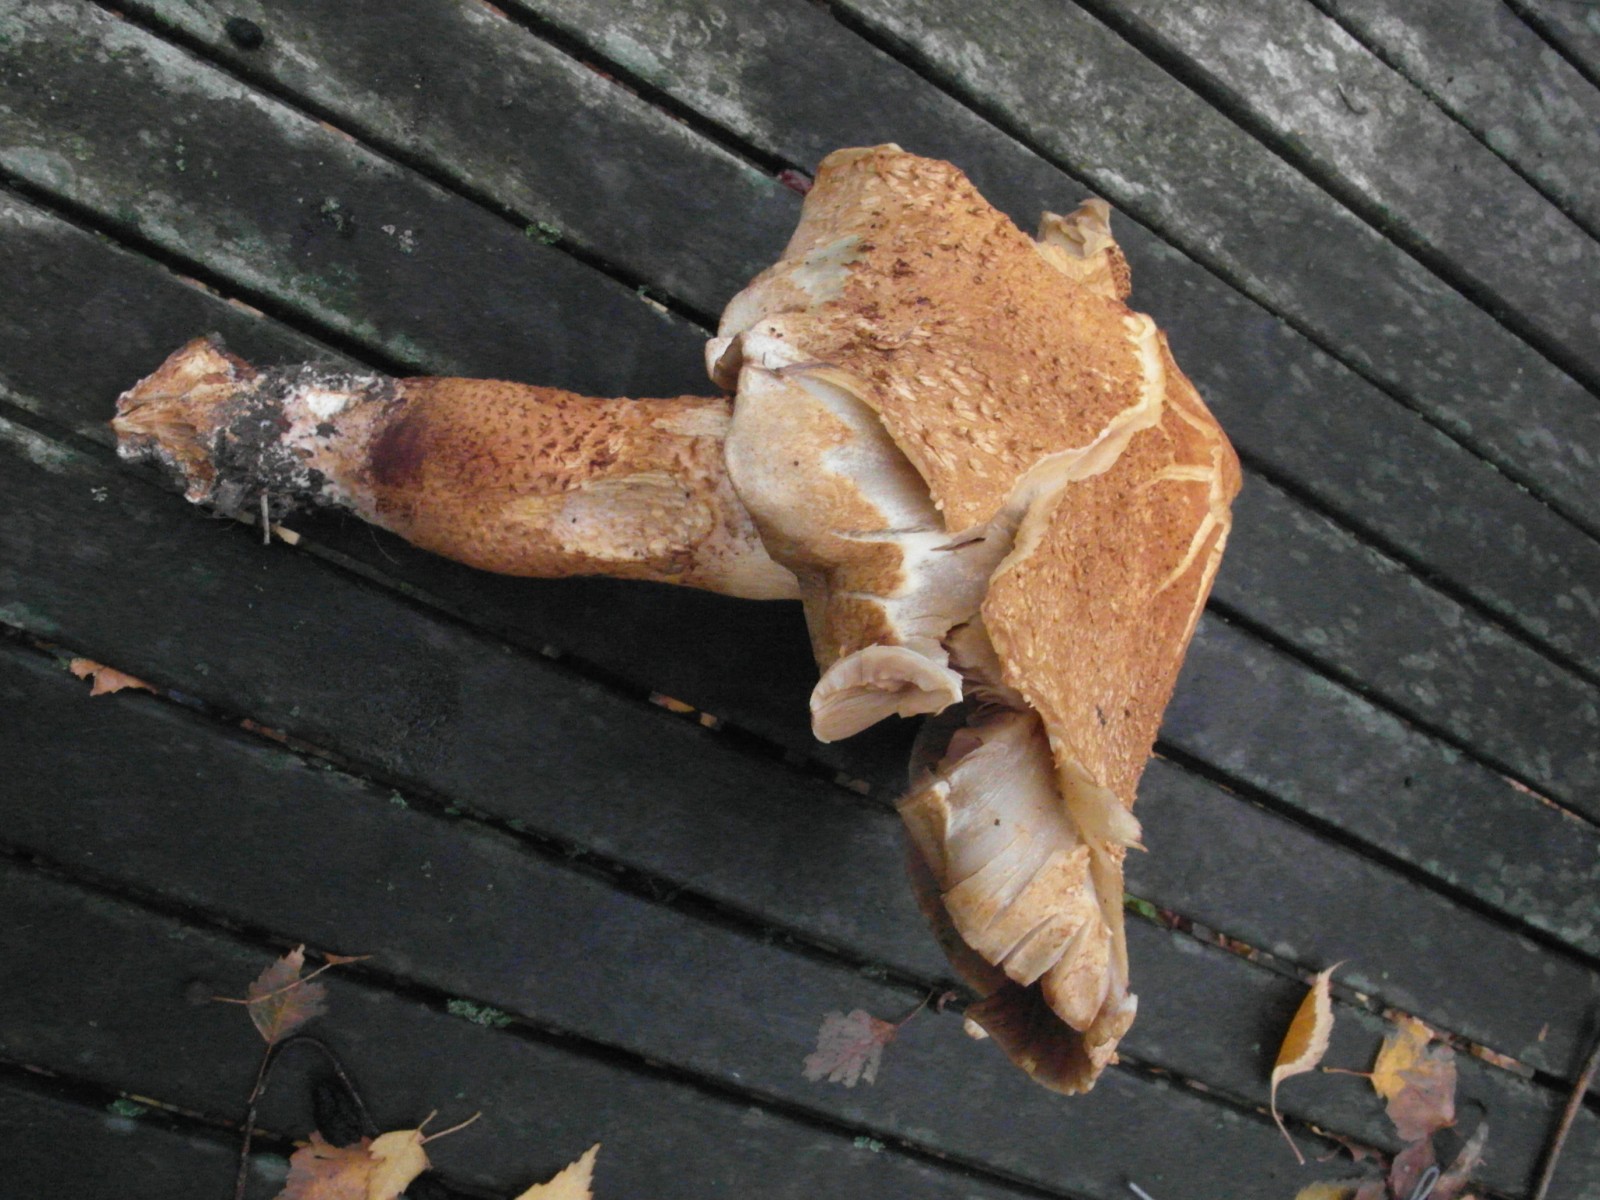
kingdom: Fungi
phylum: Basidiomycota
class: Agaricomycetes
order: Agaricales
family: Strophariaceae
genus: Pholiota
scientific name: Pholiota squarrosa
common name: krumskællet skælhat
